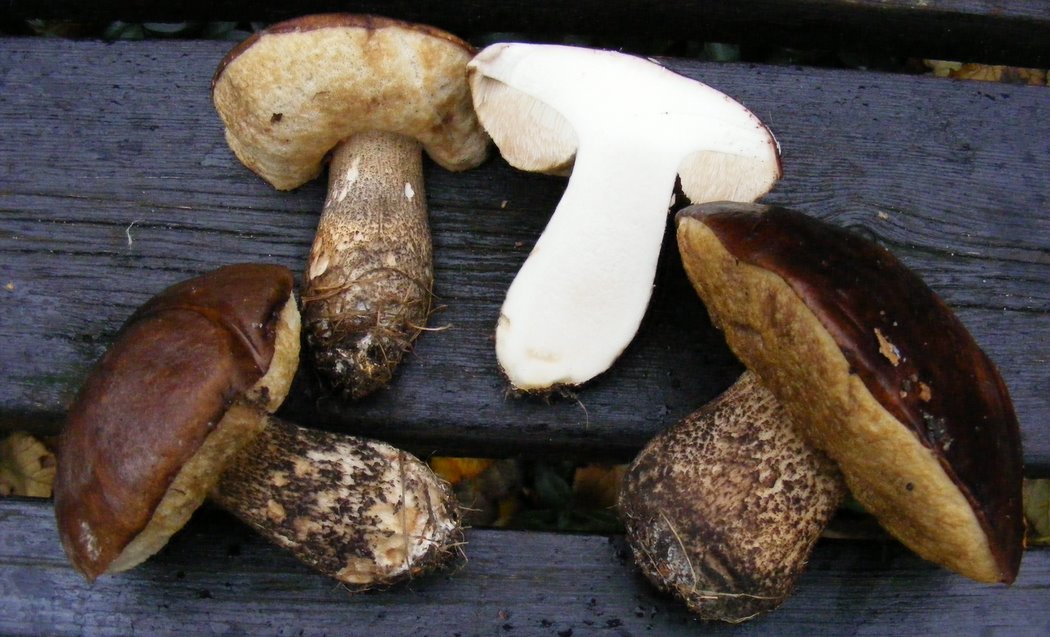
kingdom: Fungi
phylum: Basidiomycota
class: Agaricomycetes
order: Boletales
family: Boletaceae
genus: Leccinum
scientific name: Leccinum scabrum
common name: brun skælrørhat
